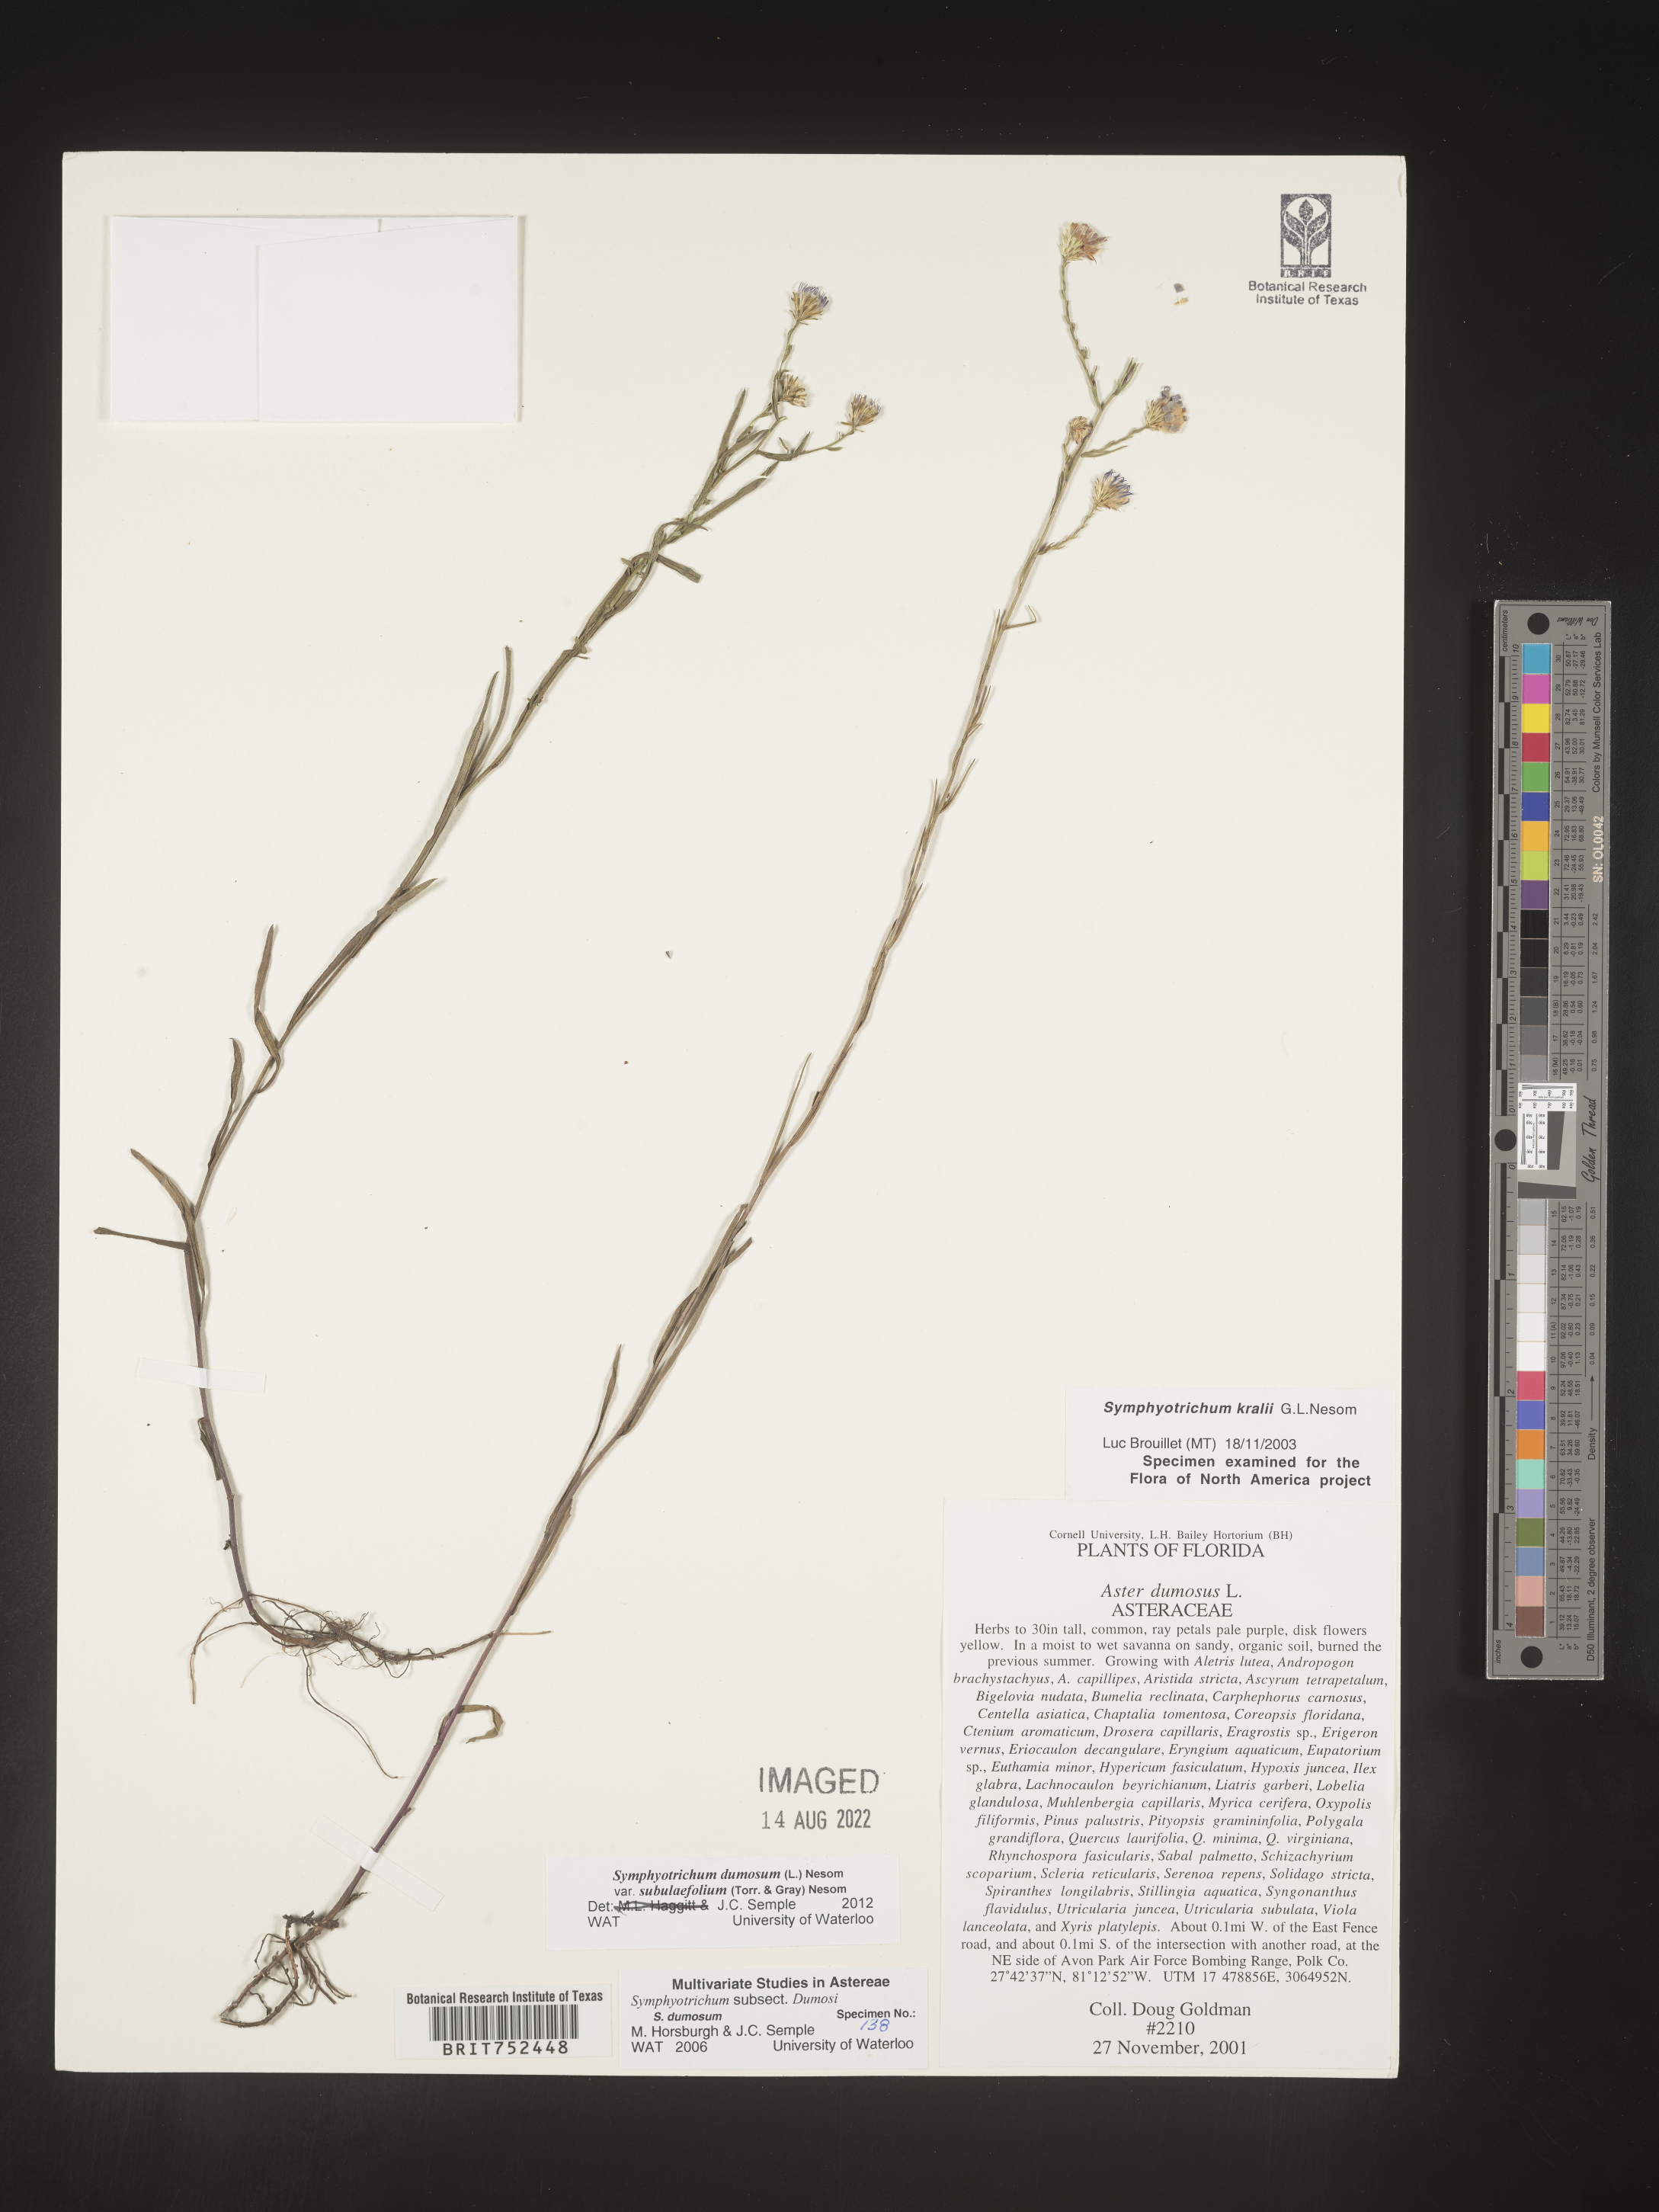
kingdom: Plantae
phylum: Tracheophyta
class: Magnoliopsida
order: Asterales
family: Asteraceae
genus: Symphyotrichum
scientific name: Symphyotrichum kralii
